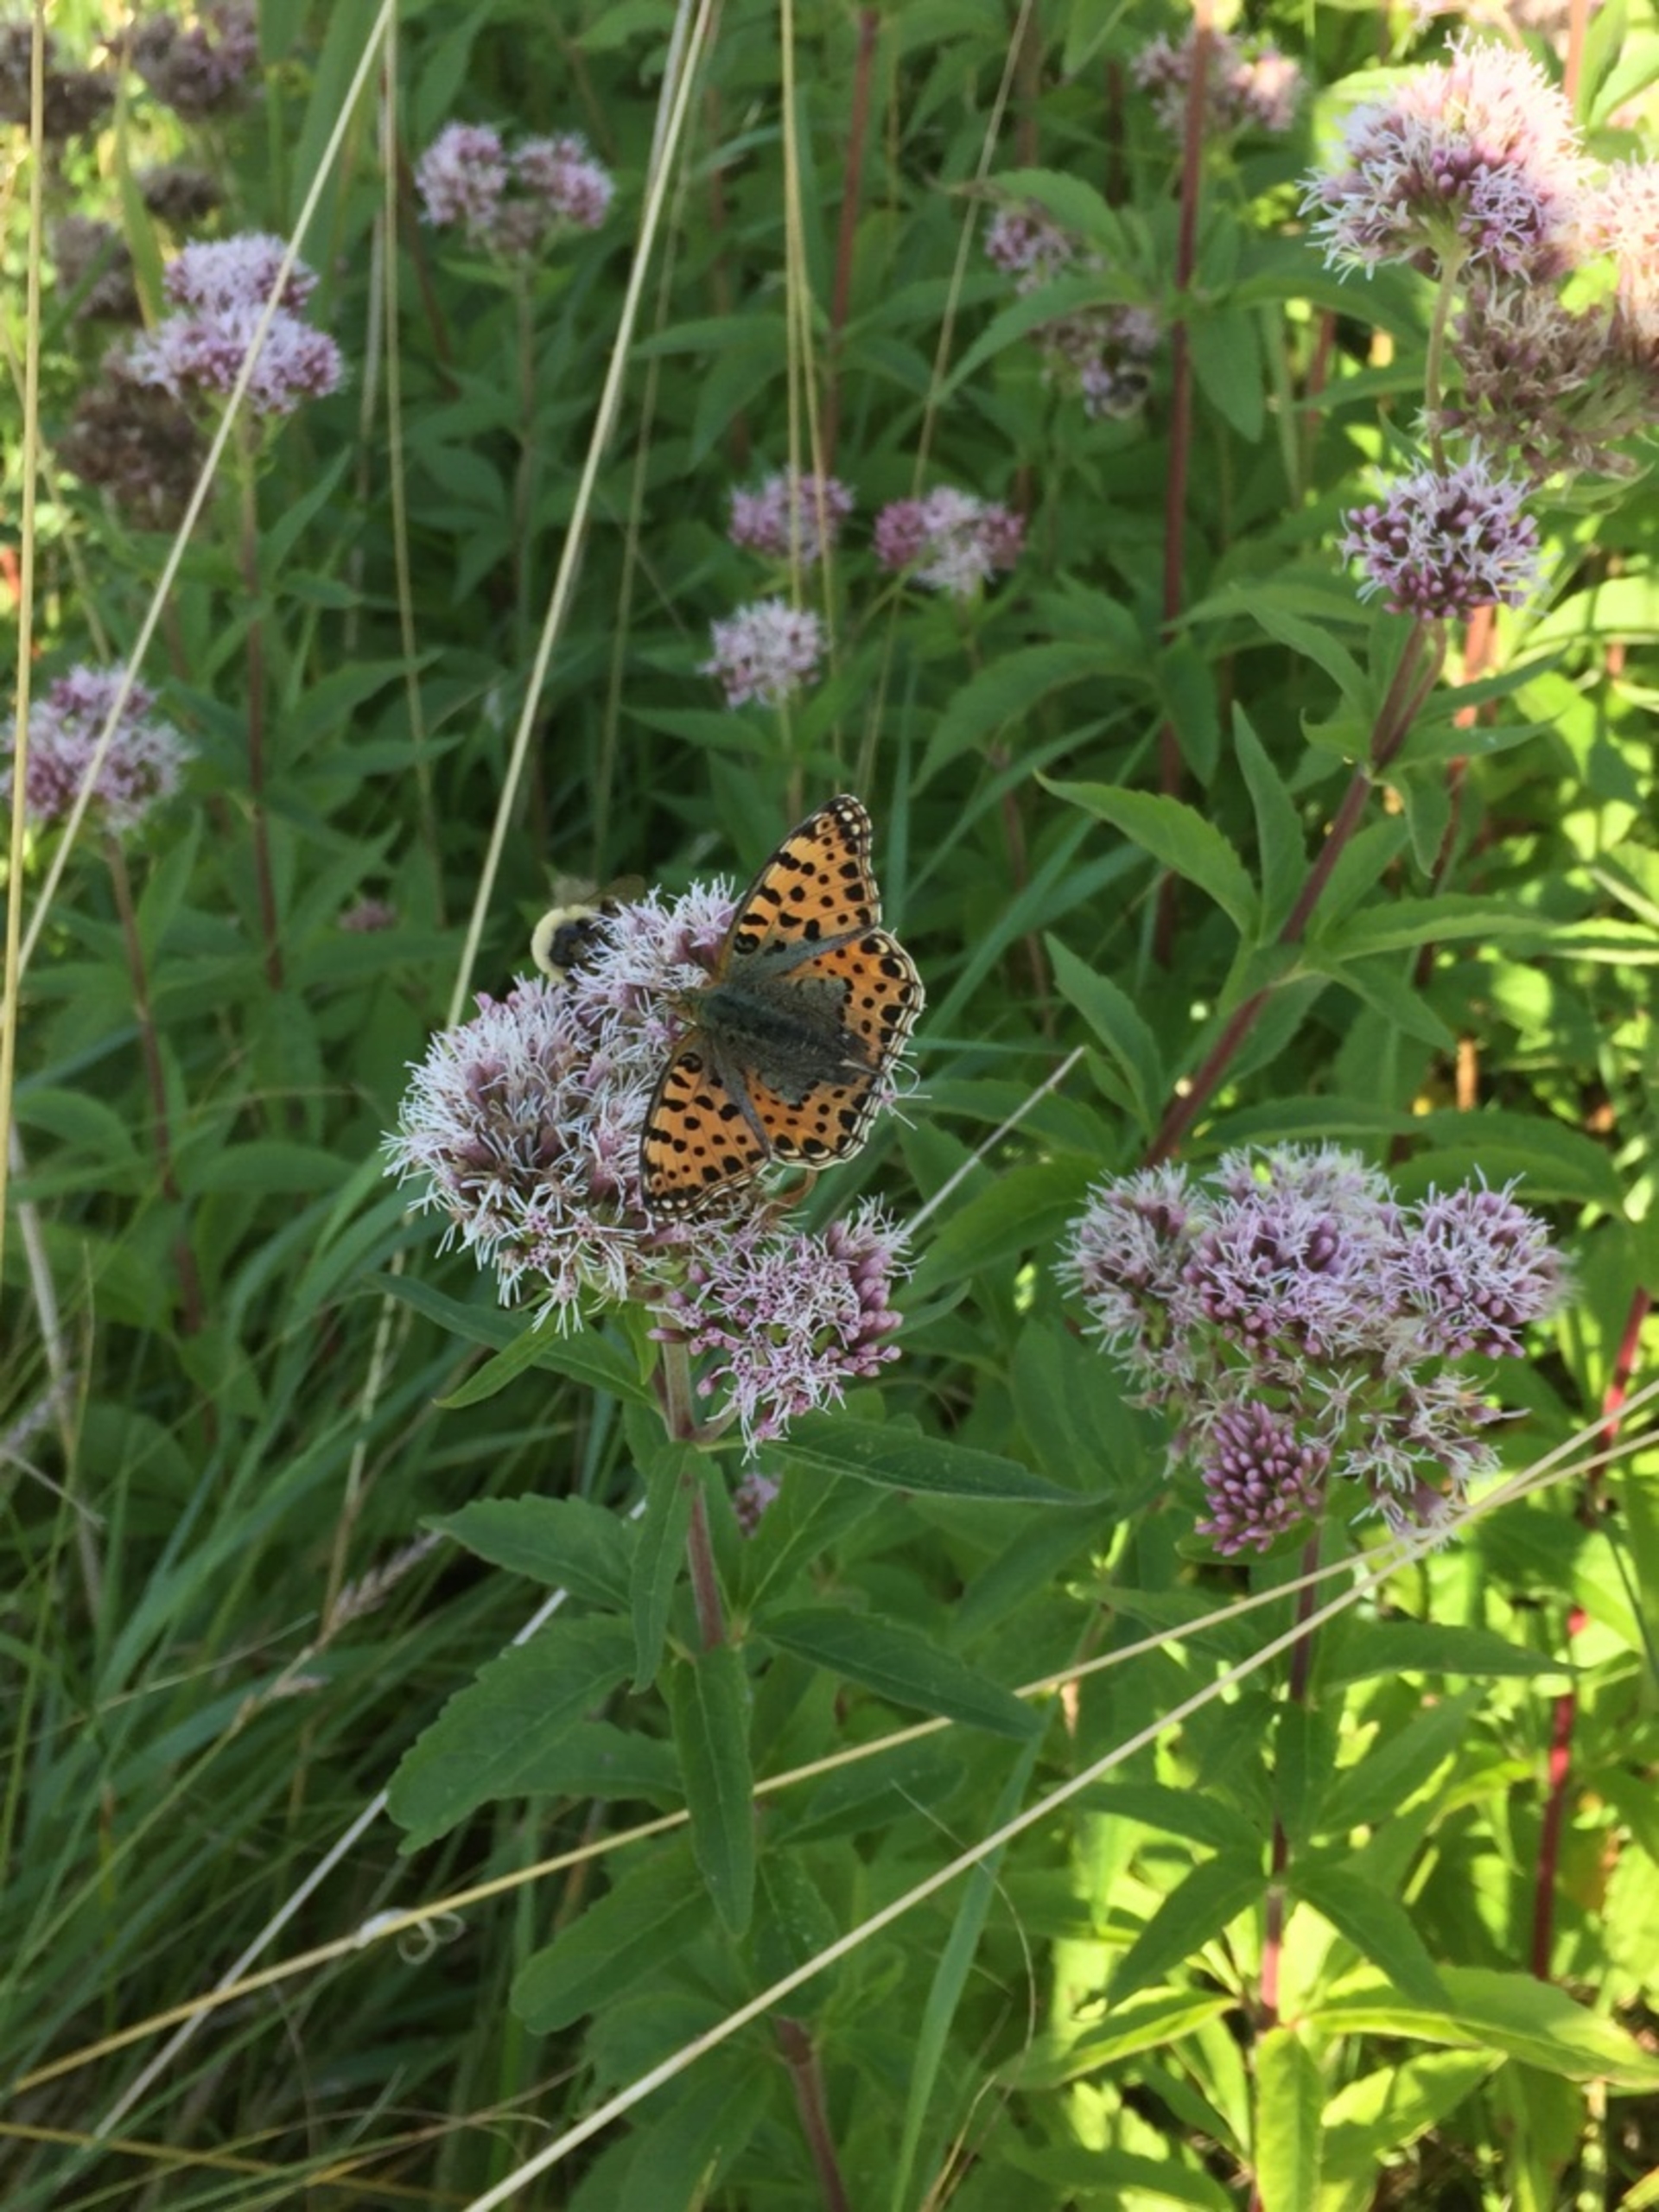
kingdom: Animalia
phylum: Arthropoda
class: Insecta
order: Lepidoptera
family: Nymphalidae
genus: Issoria
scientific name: Issoria lathonia
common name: Storplettet perlemorsommerfugl
